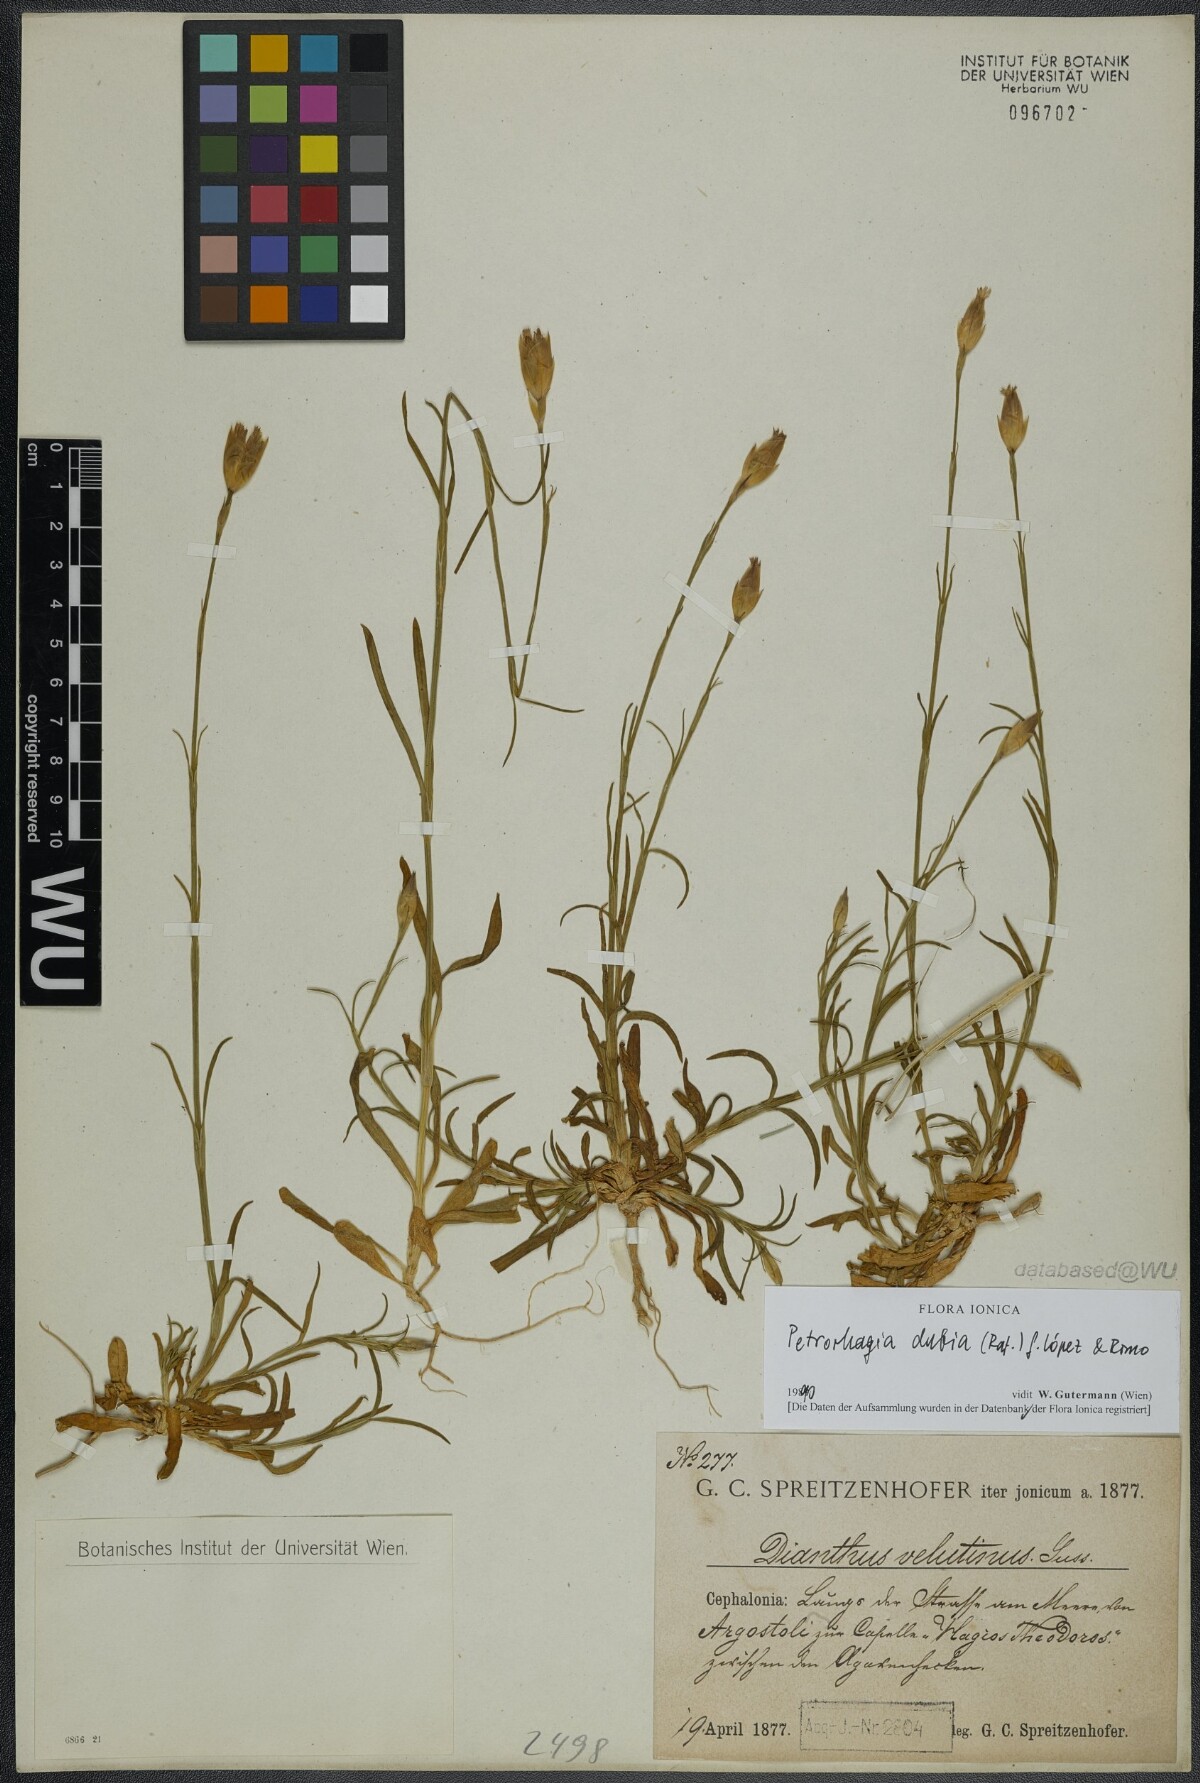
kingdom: Plantae
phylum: Tracheophyta
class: Magnoliopsida
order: Caryophyllales
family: Caryophyllaceae
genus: Petrorhagia
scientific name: Petrorhagia dubia
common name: Hairypink
